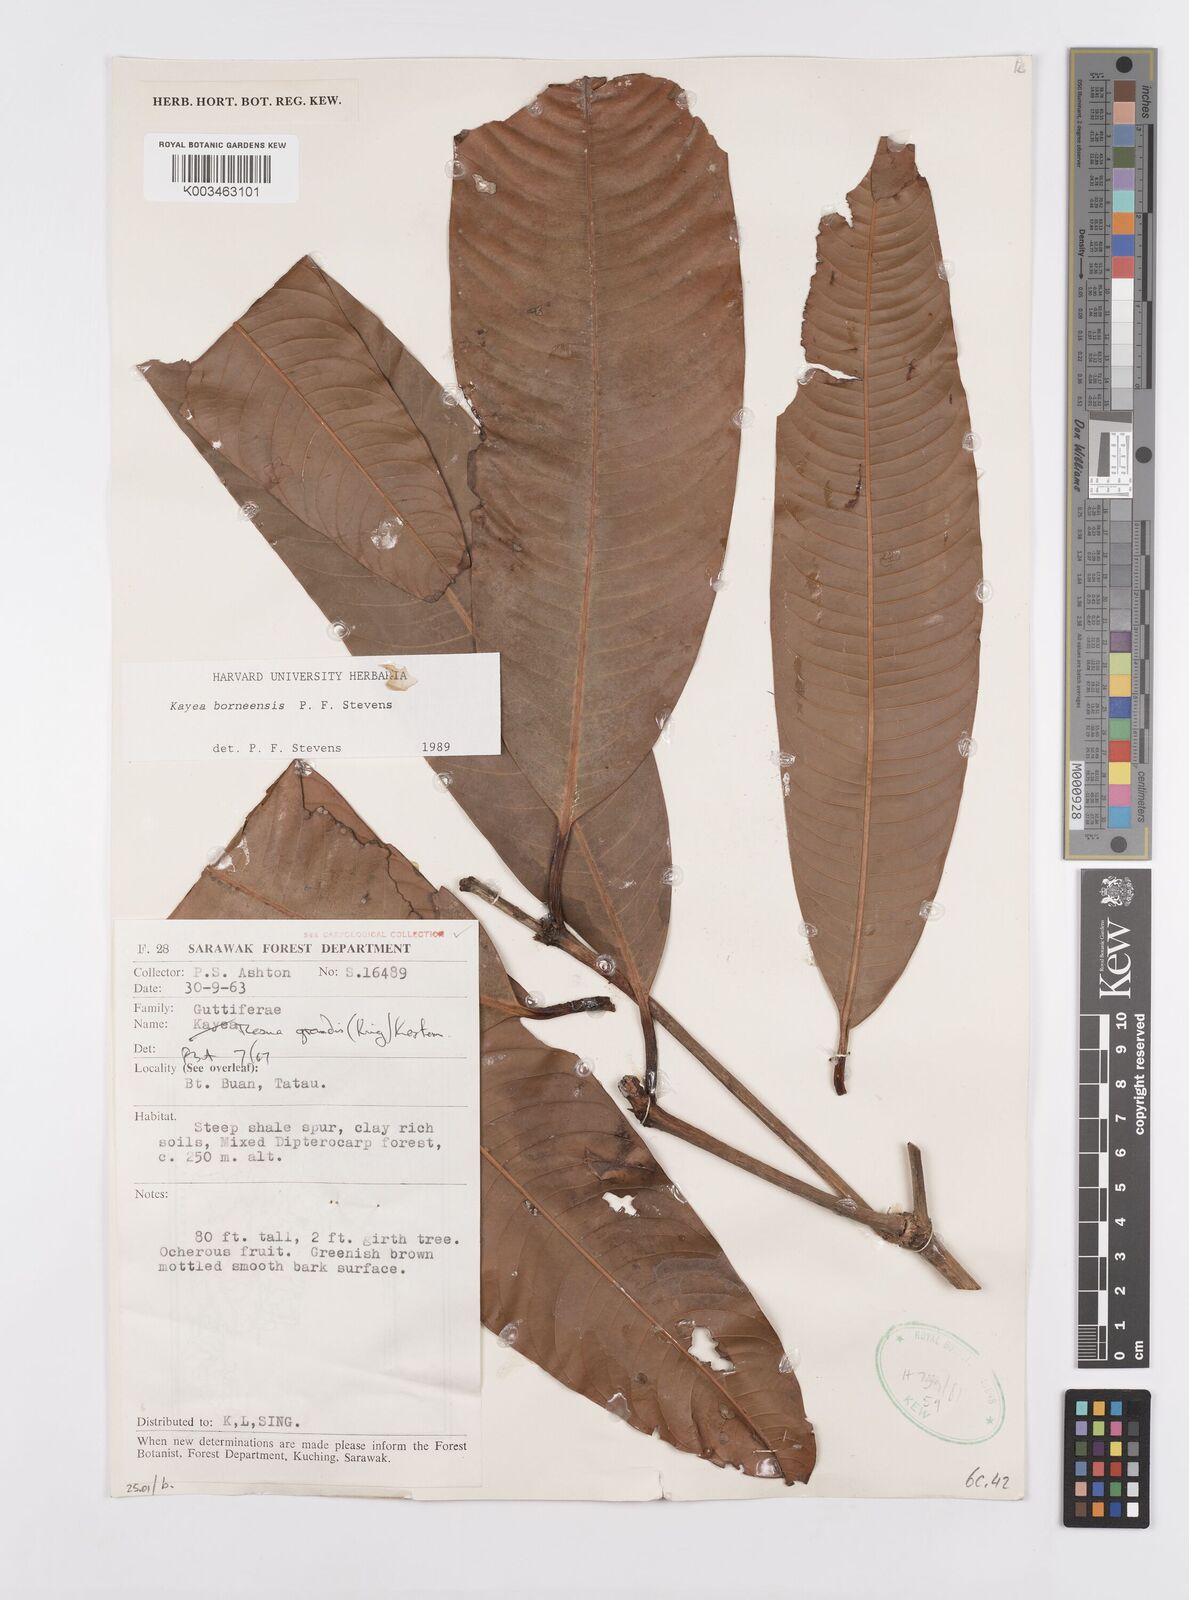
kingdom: Plantae
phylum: Tracheophyta
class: Magnoliopsida
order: Malpighiales
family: Calophyllaceae
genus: Kayea
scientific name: Kayea borneensis
